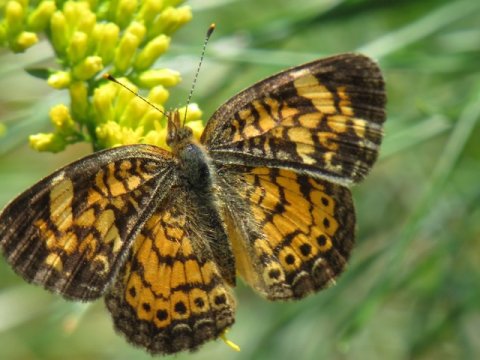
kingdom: Animalia
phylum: Arthropoda
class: Insecta
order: Lepidoptera
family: Nymphalidae
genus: Phyciodes
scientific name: Phyciodes tharos
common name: Pearl Crescent
